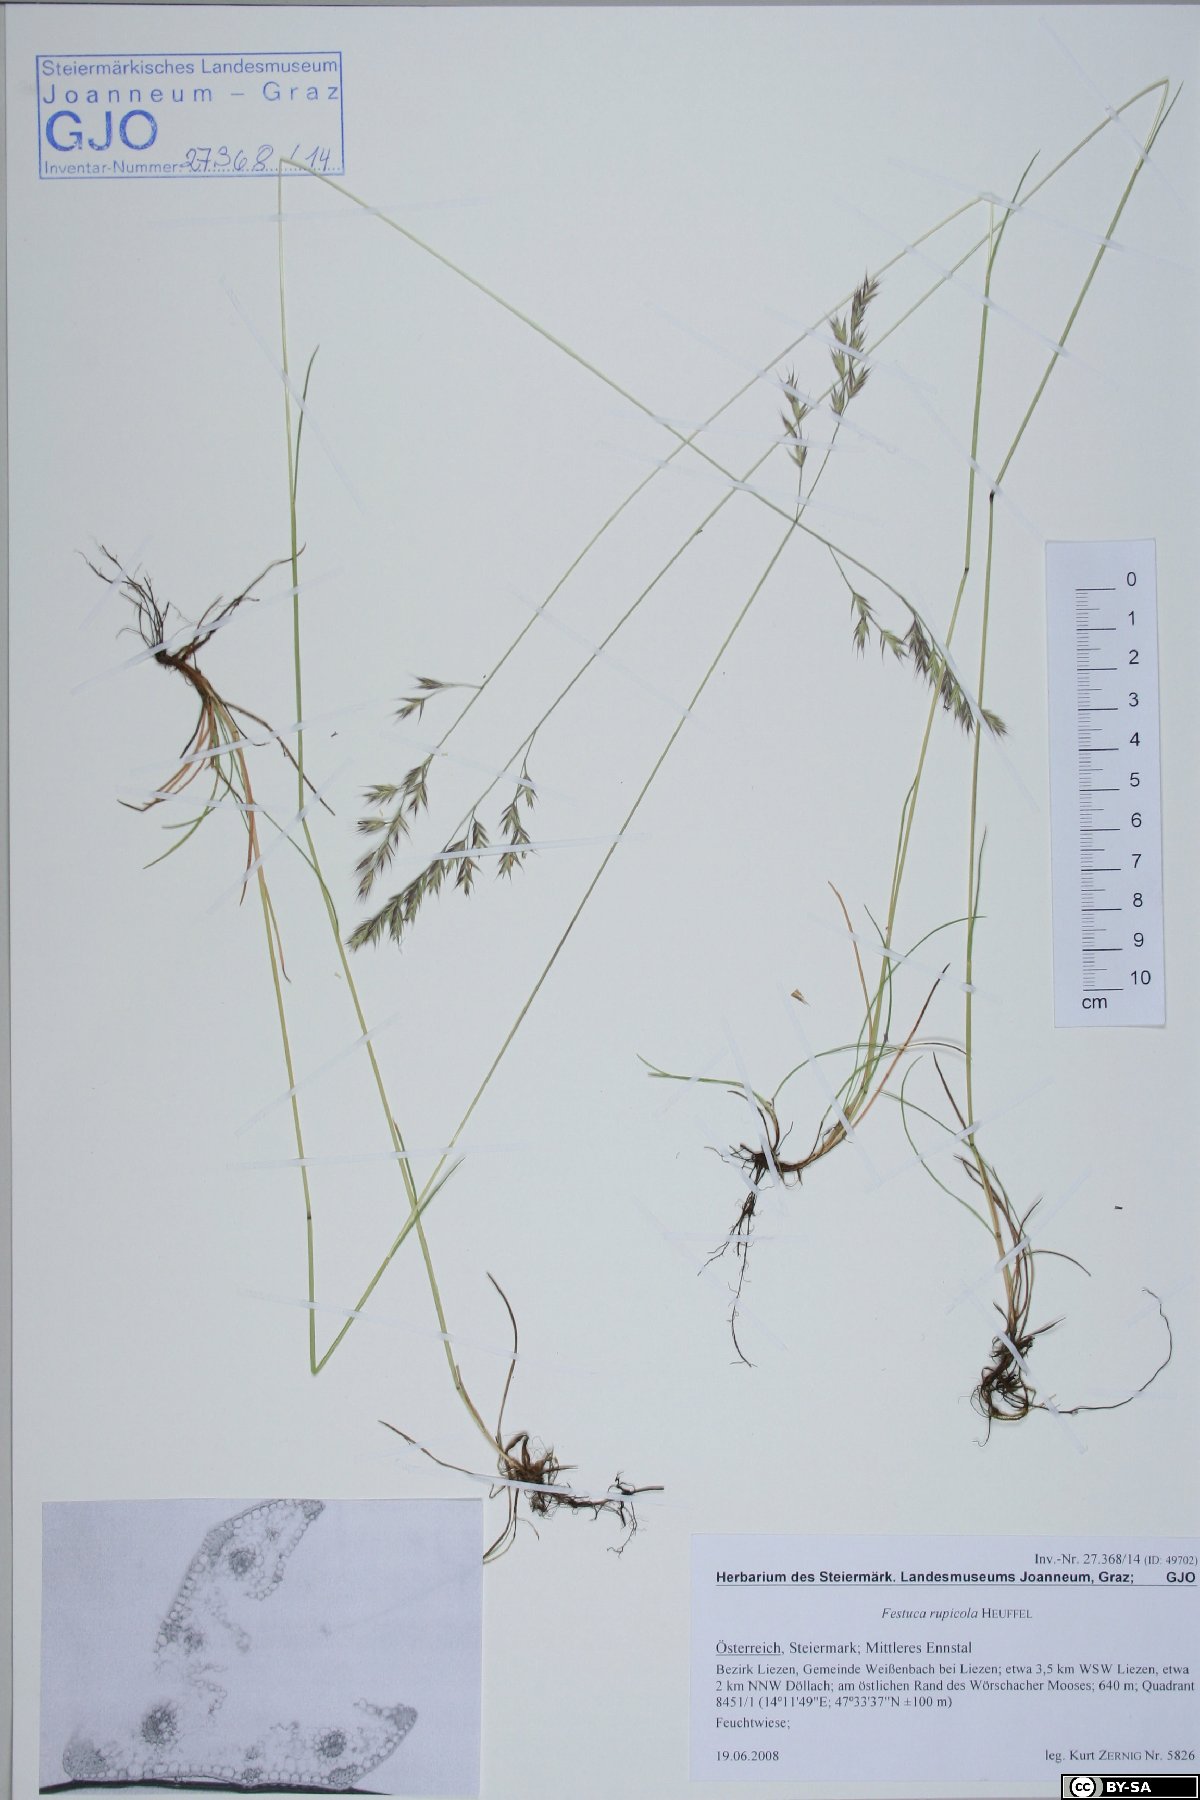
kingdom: Plantae
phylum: Tracheophyta
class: Liliopsida
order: Poales
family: Poaceae
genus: Festuca
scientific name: Festuca rubra
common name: Red fescue
